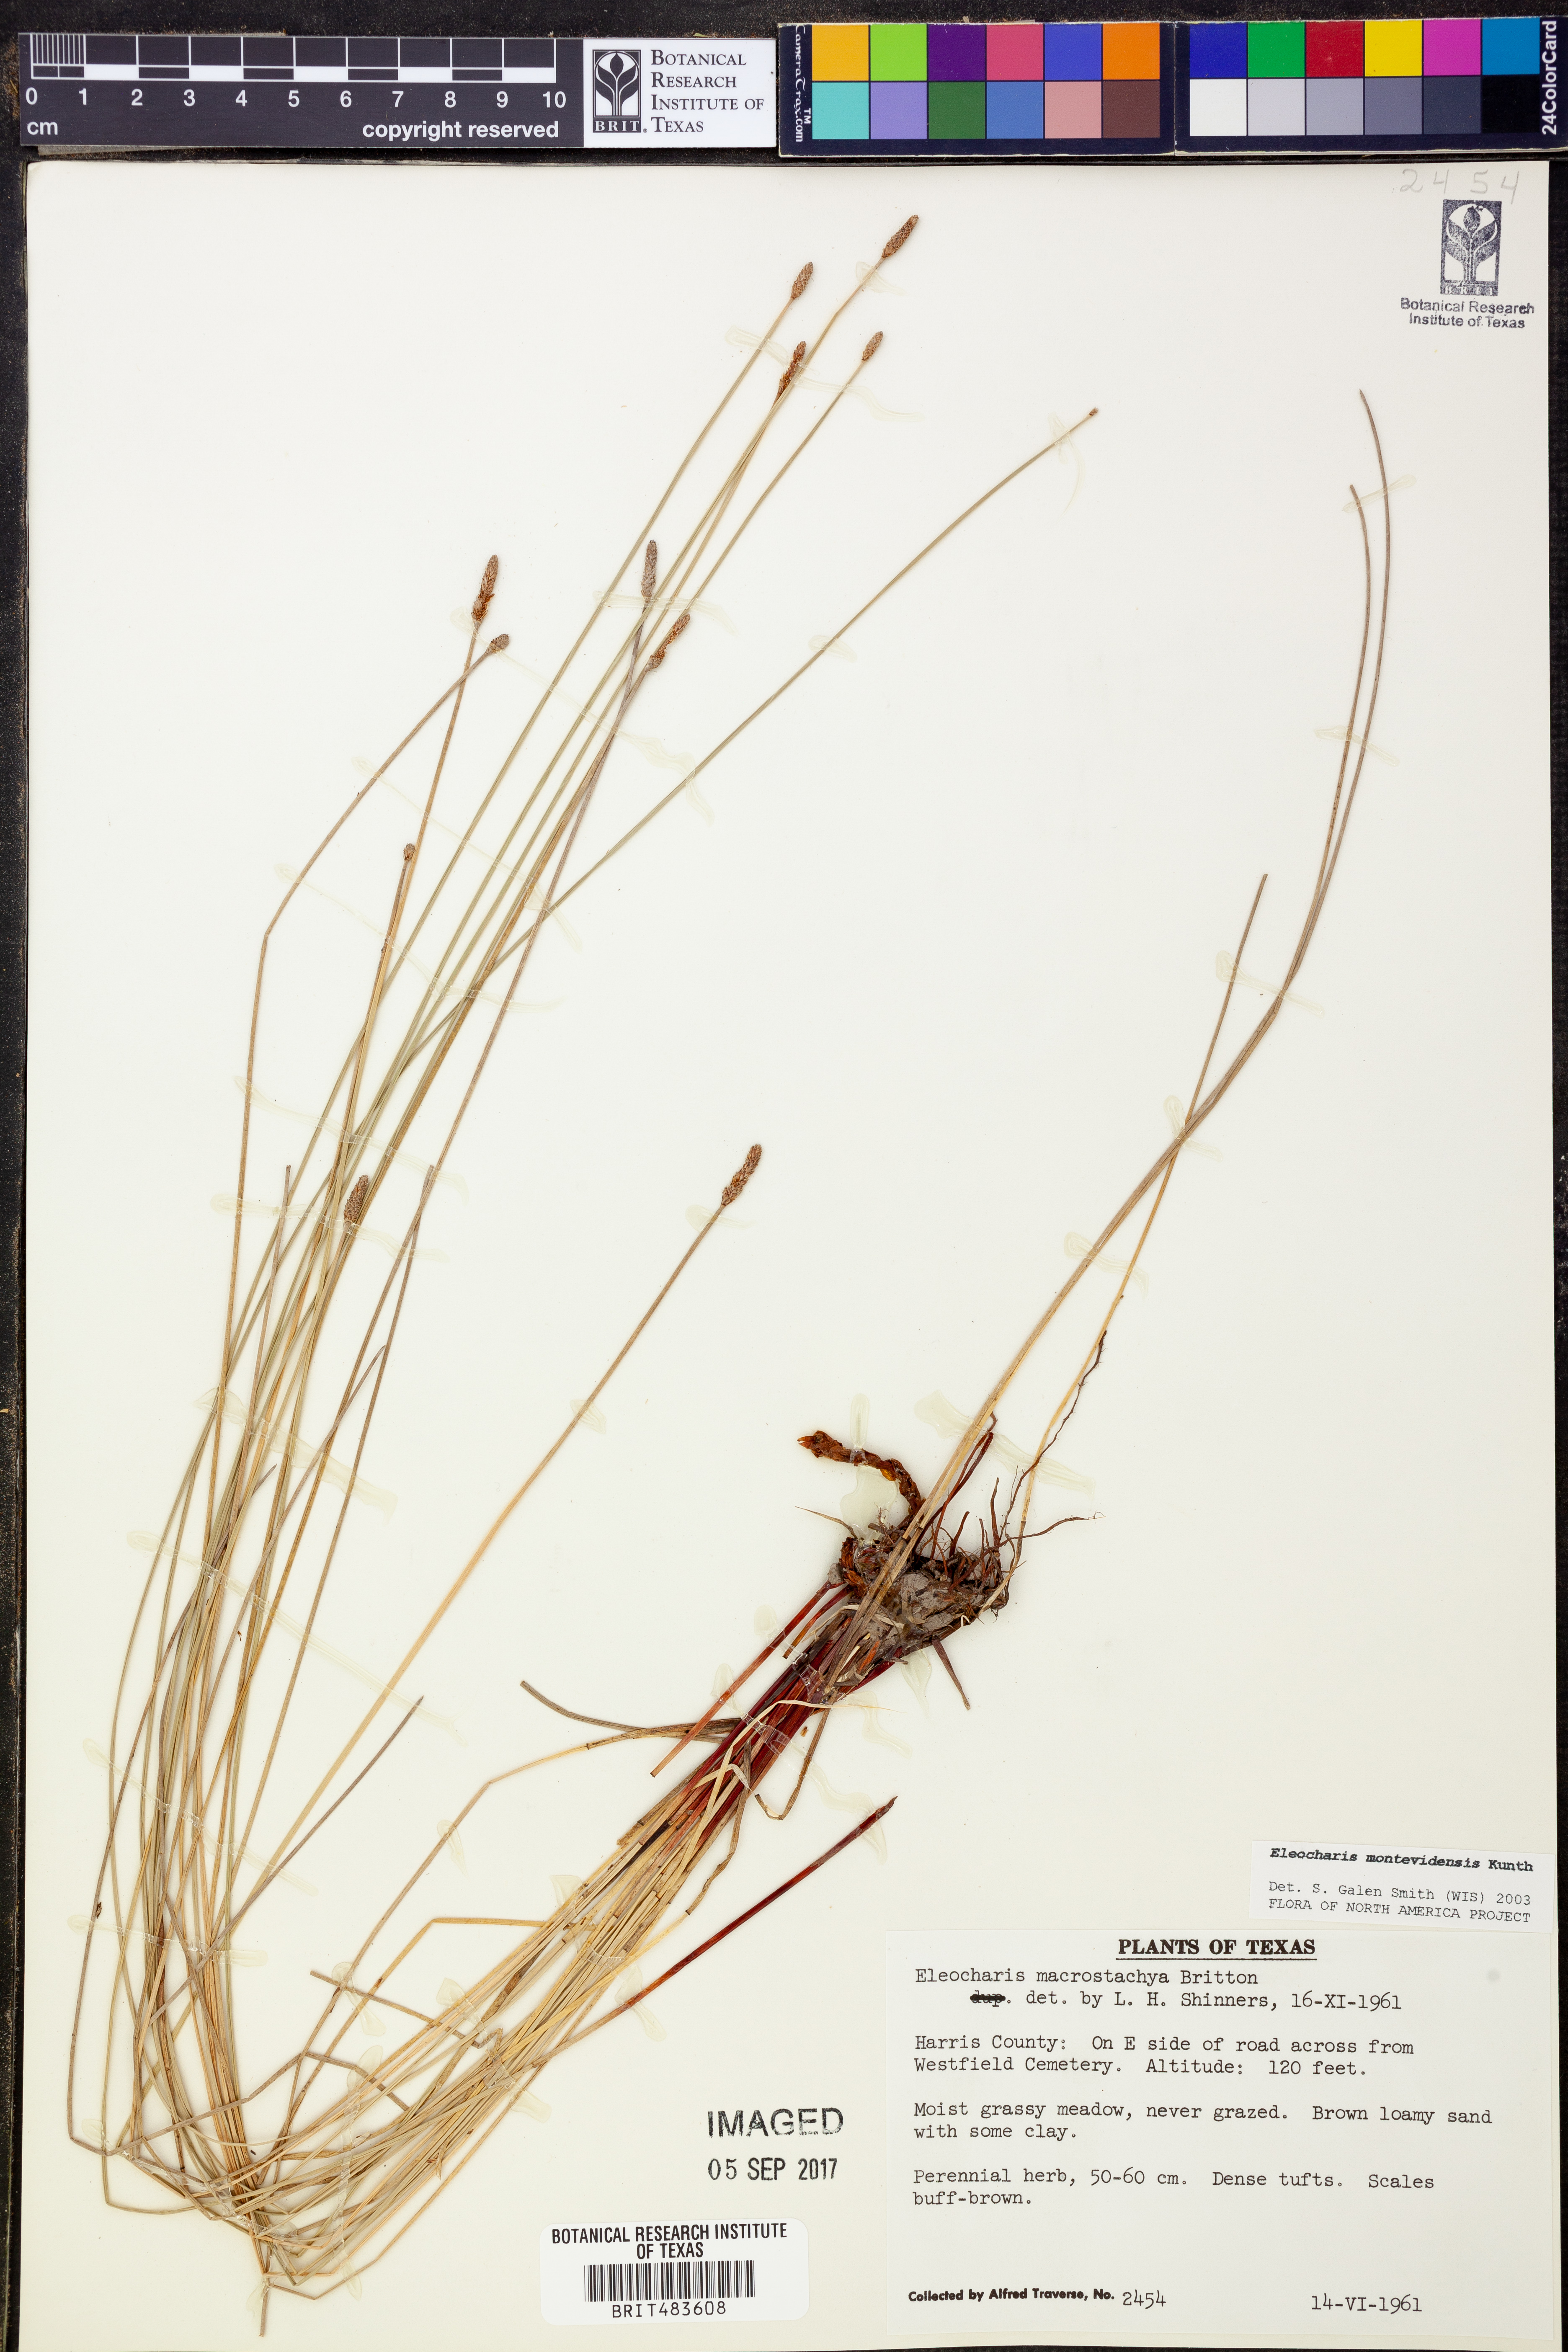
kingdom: Plantae
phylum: Tracheophyta
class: Liliopsida
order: Poales
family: Cyperaceae
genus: Eleocharis
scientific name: Eleocharis montevidensis
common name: Sand spike-rush
